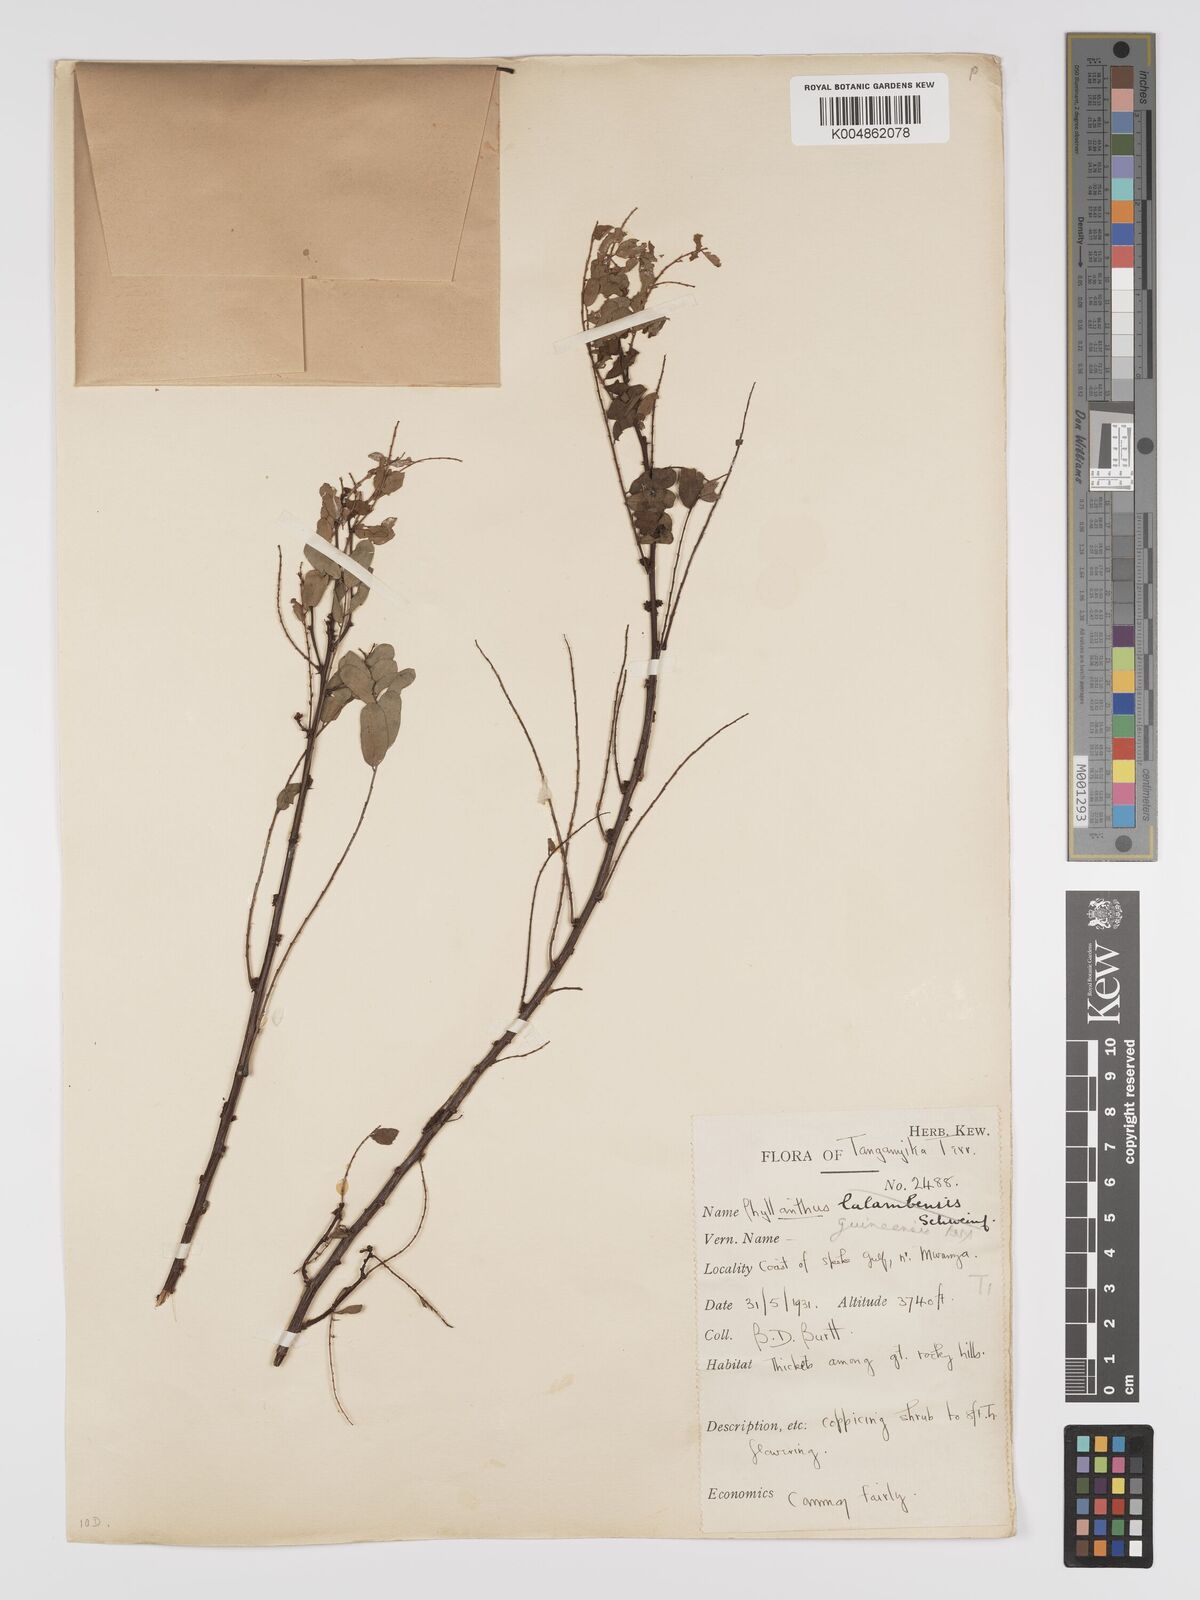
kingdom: Plantae
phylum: Tracheophyta
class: Magnoliopsida
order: Malpighiales
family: Phyllanthaceae
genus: Phyllanthus
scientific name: Phyllanthus ovalifolius
